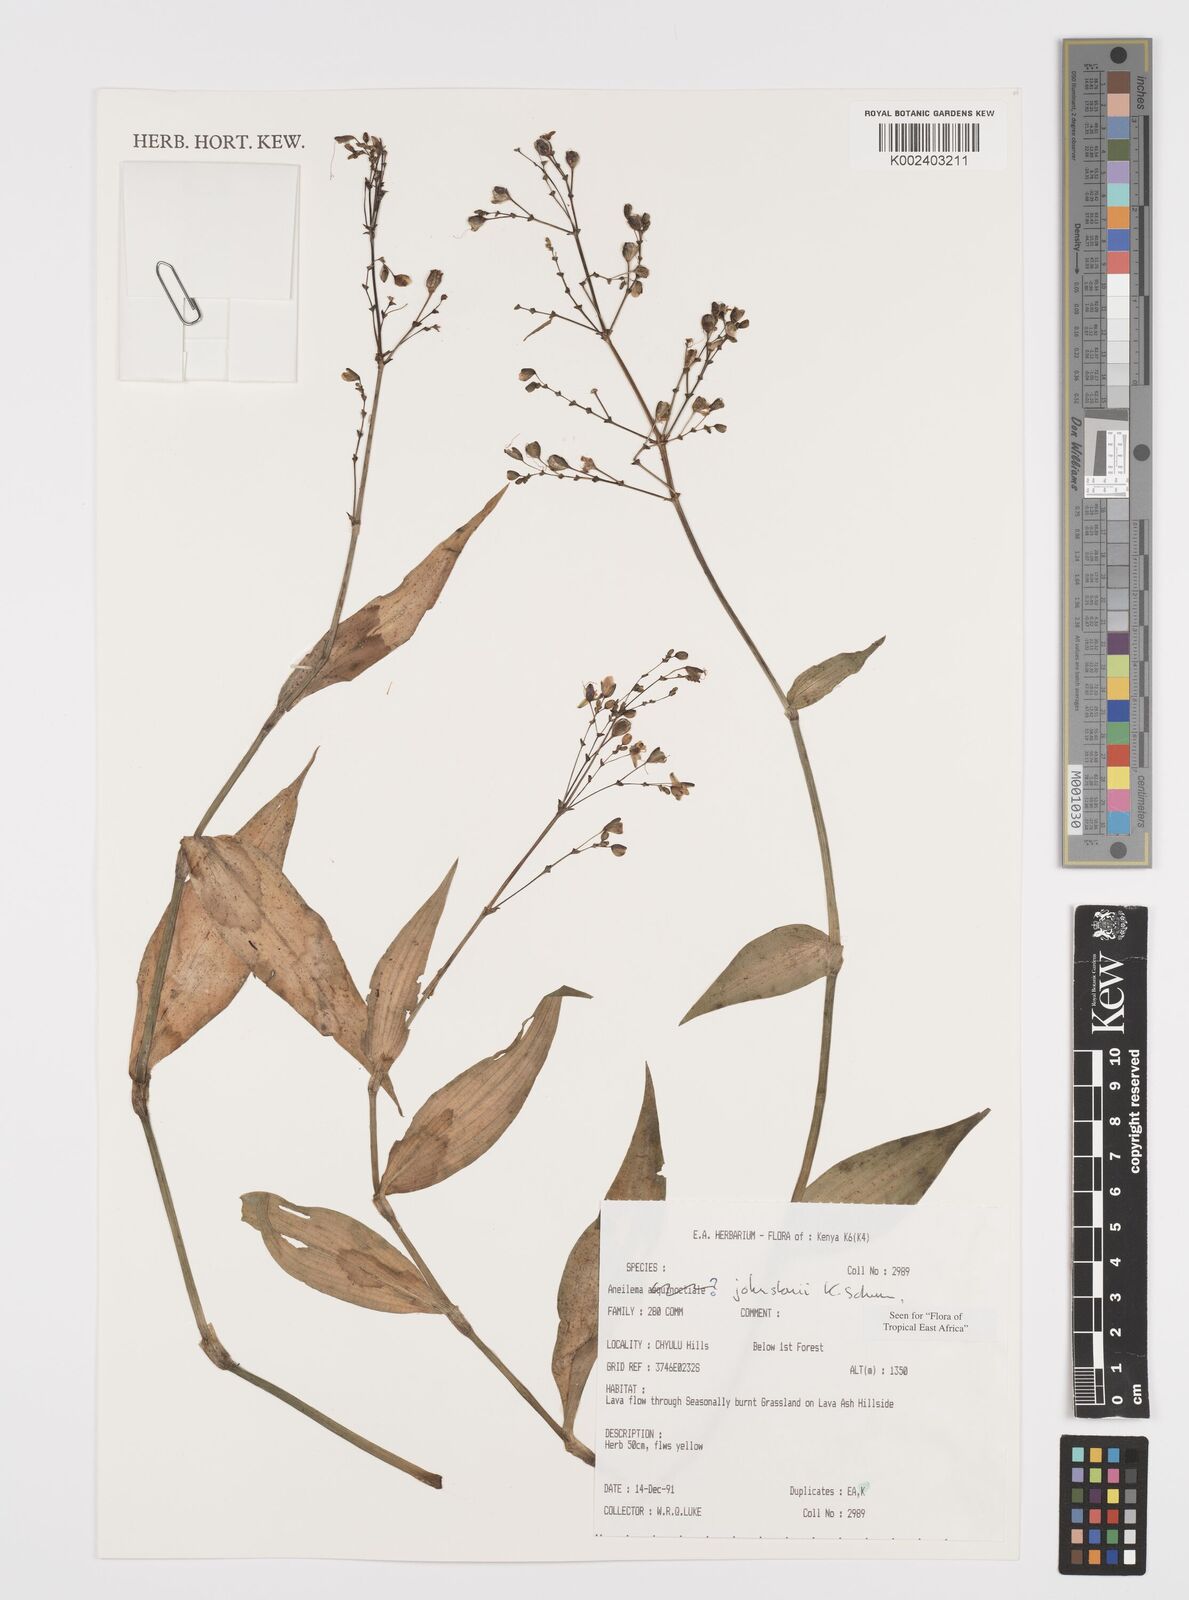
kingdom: Plantae
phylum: Tracheophyta
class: Liliopsida
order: Commelinales
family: Commelinaceae
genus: Aneilema
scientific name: Aneilema johnstonii
